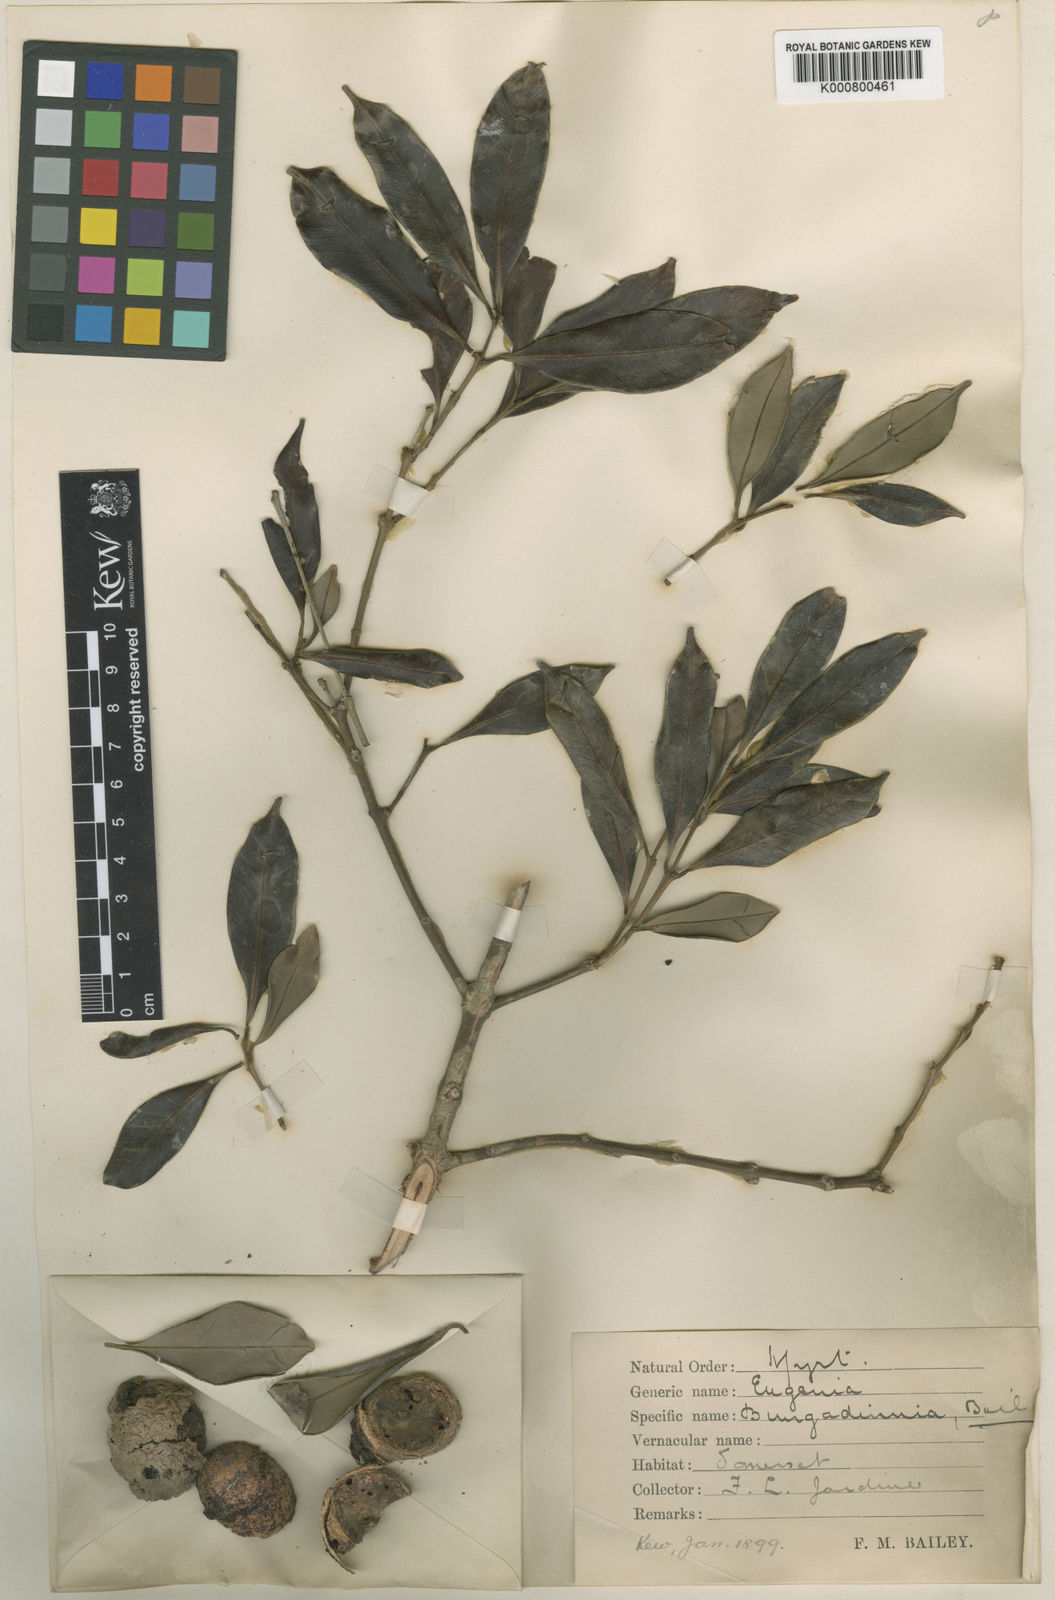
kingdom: Plantae
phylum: Tracheophyta
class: Magnoliopsida
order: Myrtales
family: Myrtaceae
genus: Syzygium
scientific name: Syzygium bungadinnia
